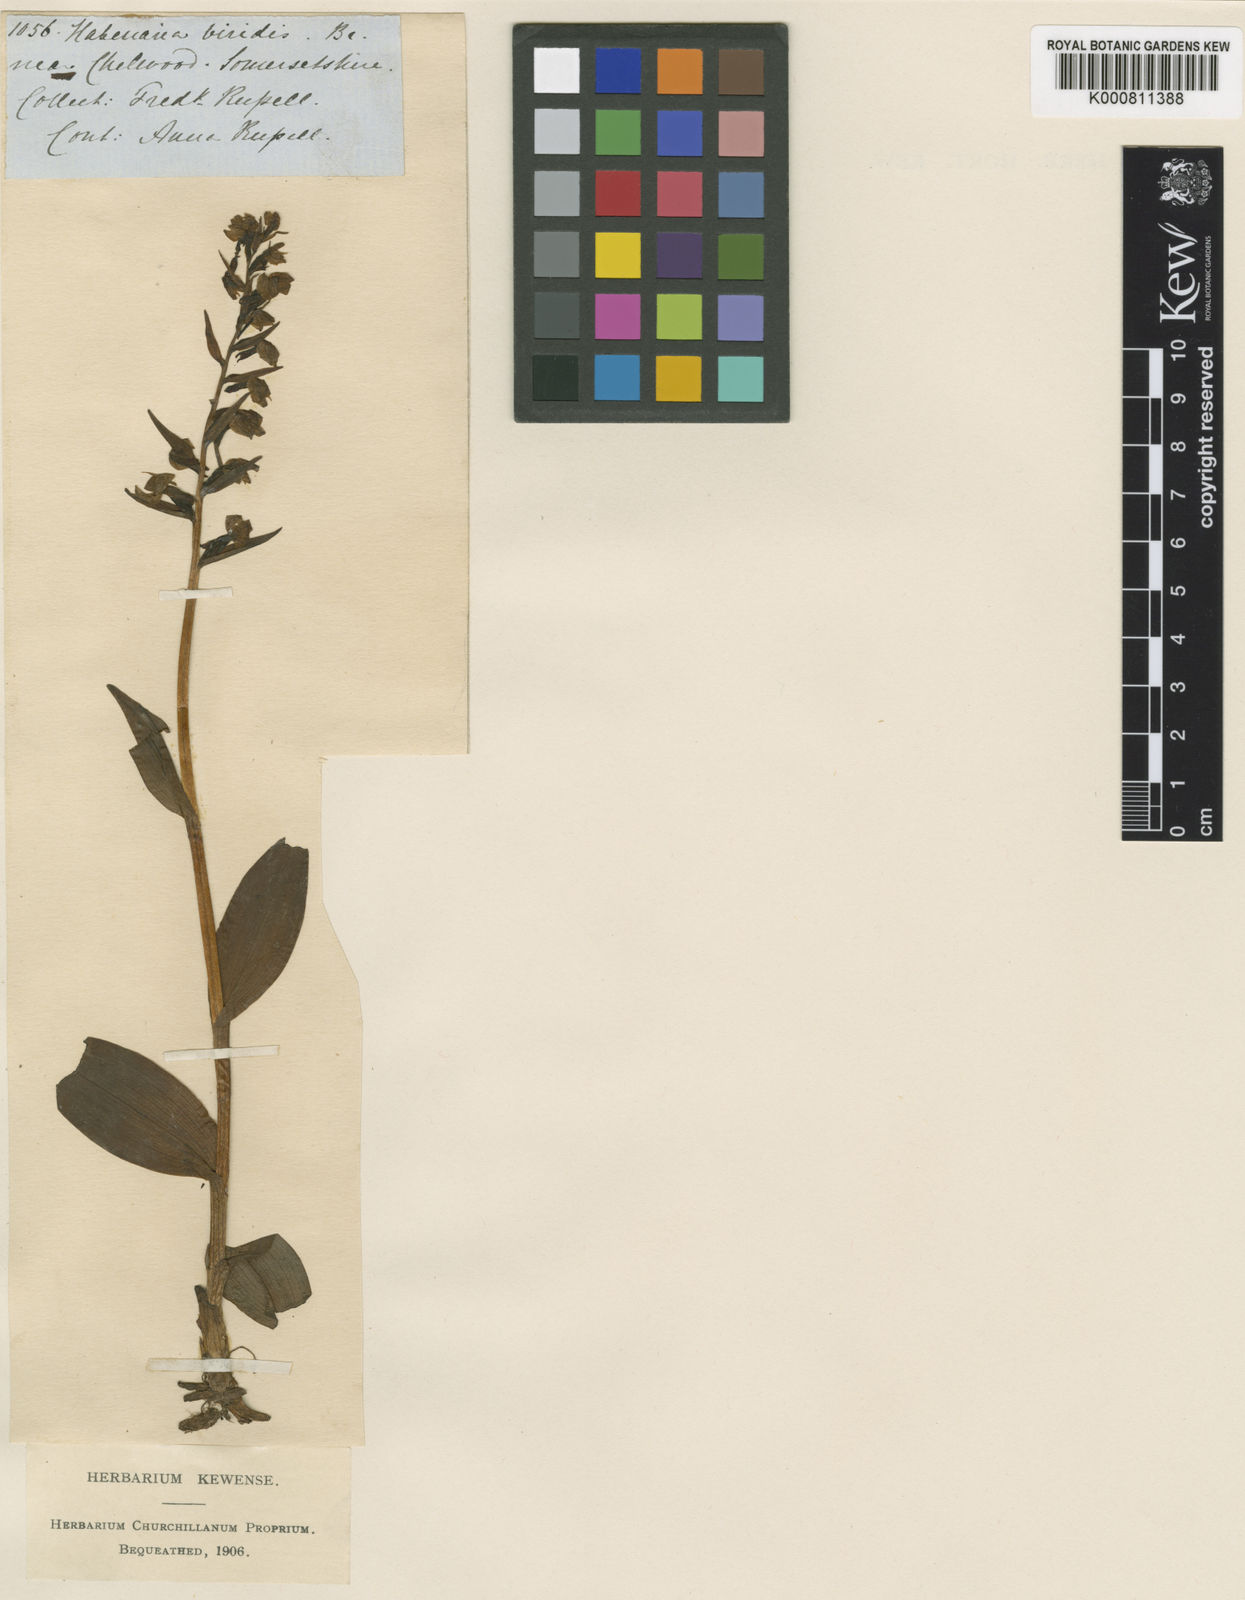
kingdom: Plantae
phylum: Tracheophyta
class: Liliopsida
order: Asparagales
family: Orchidaceae
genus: Dactylorhiza
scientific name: Dactylorhiza viridis
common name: Longbract frog orchid
